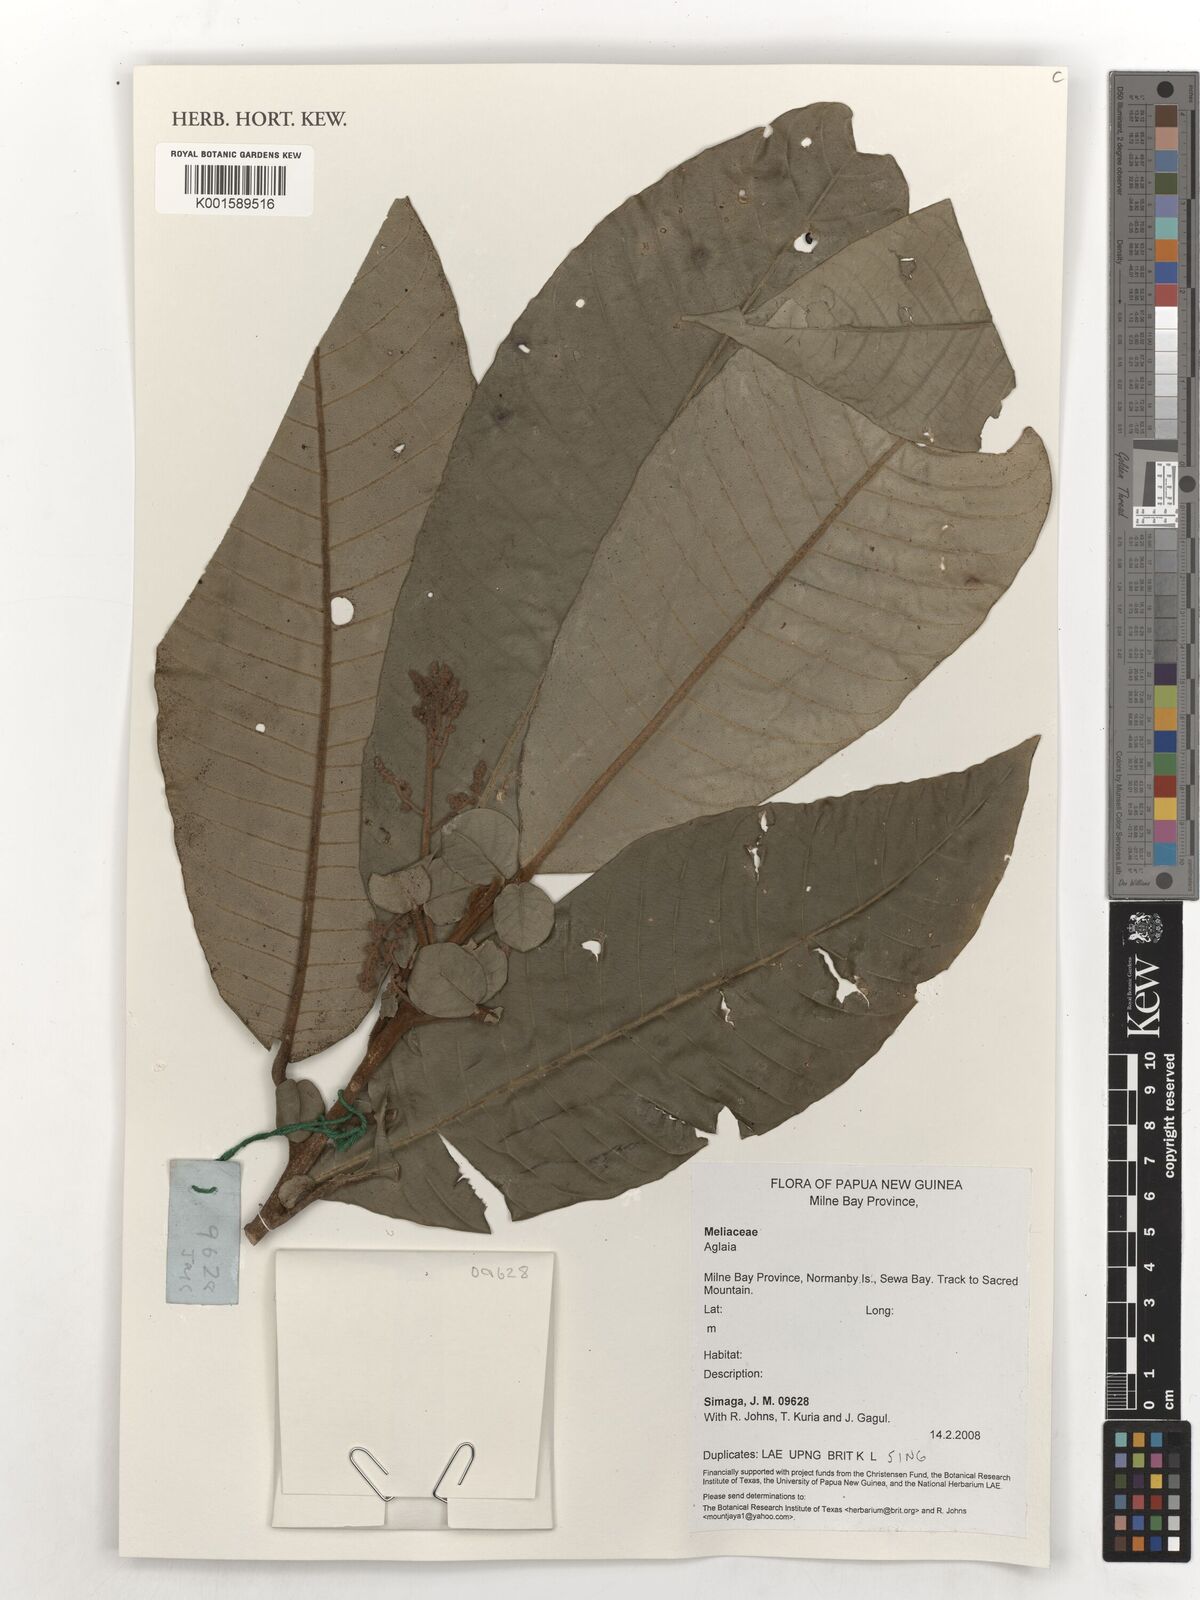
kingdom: Plantae
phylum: Tracheophyta
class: Magnoliopsida
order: Sapindales
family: Meliaceae
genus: Aglaia
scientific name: Aglaia
